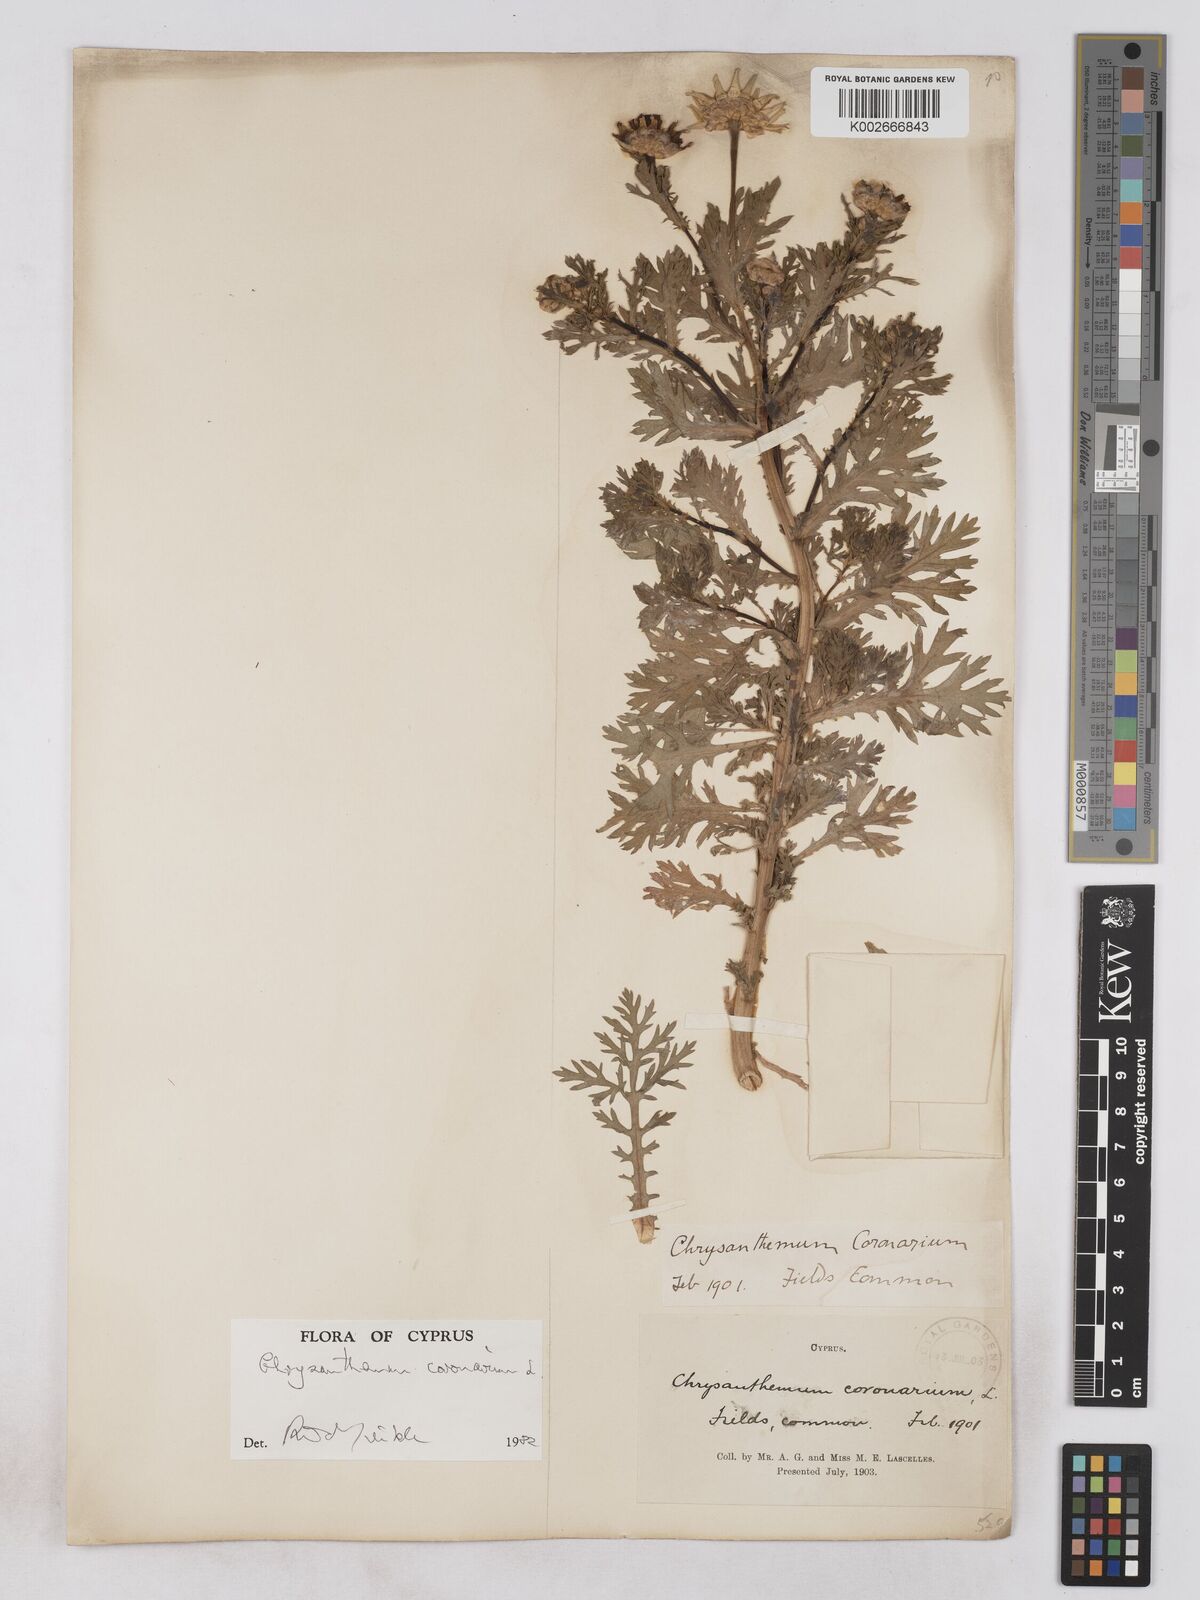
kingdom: Plantae
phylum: Tracheophyta
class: Magnoliopsida
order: Asterales
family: Asteraceae
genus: Glebionis
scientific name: Glebionis coronaria
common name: Crowndaisy
